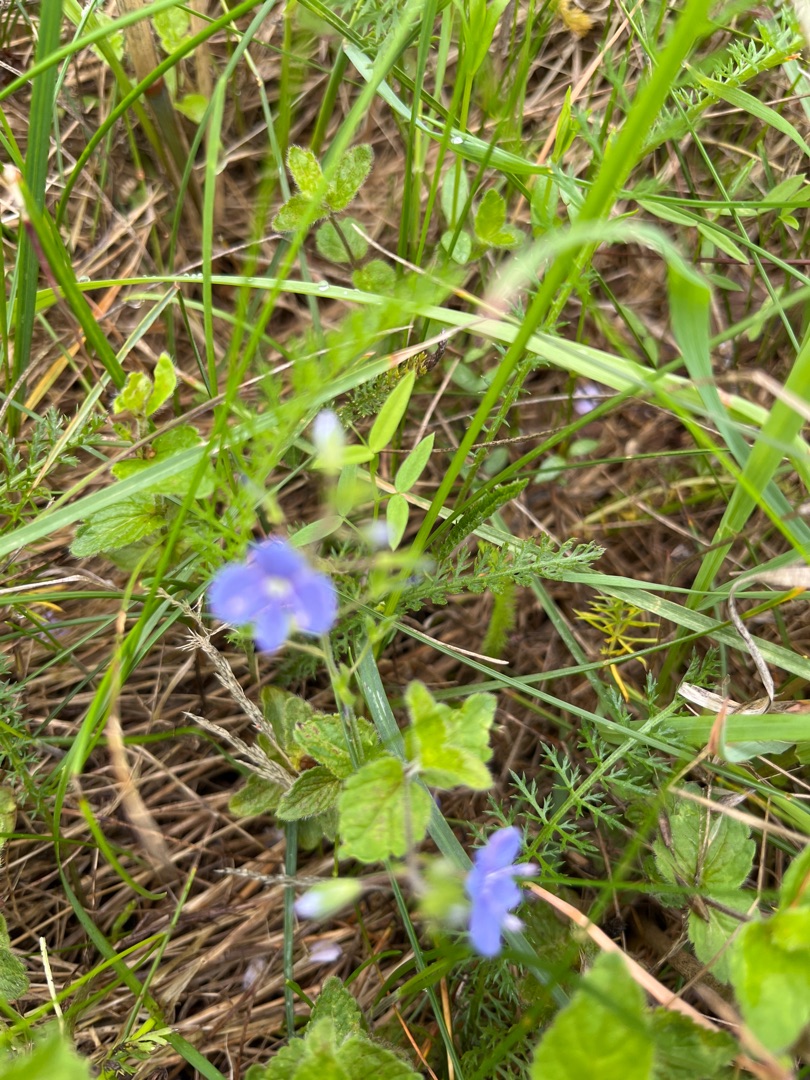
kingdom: Plantae
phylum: Tracheophyta
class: Magnoliopsida
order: Lamiales
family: Plantaginaceae
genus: Veronica
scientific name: Veronica chamaedrys
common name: Tveskægget ærenpris
